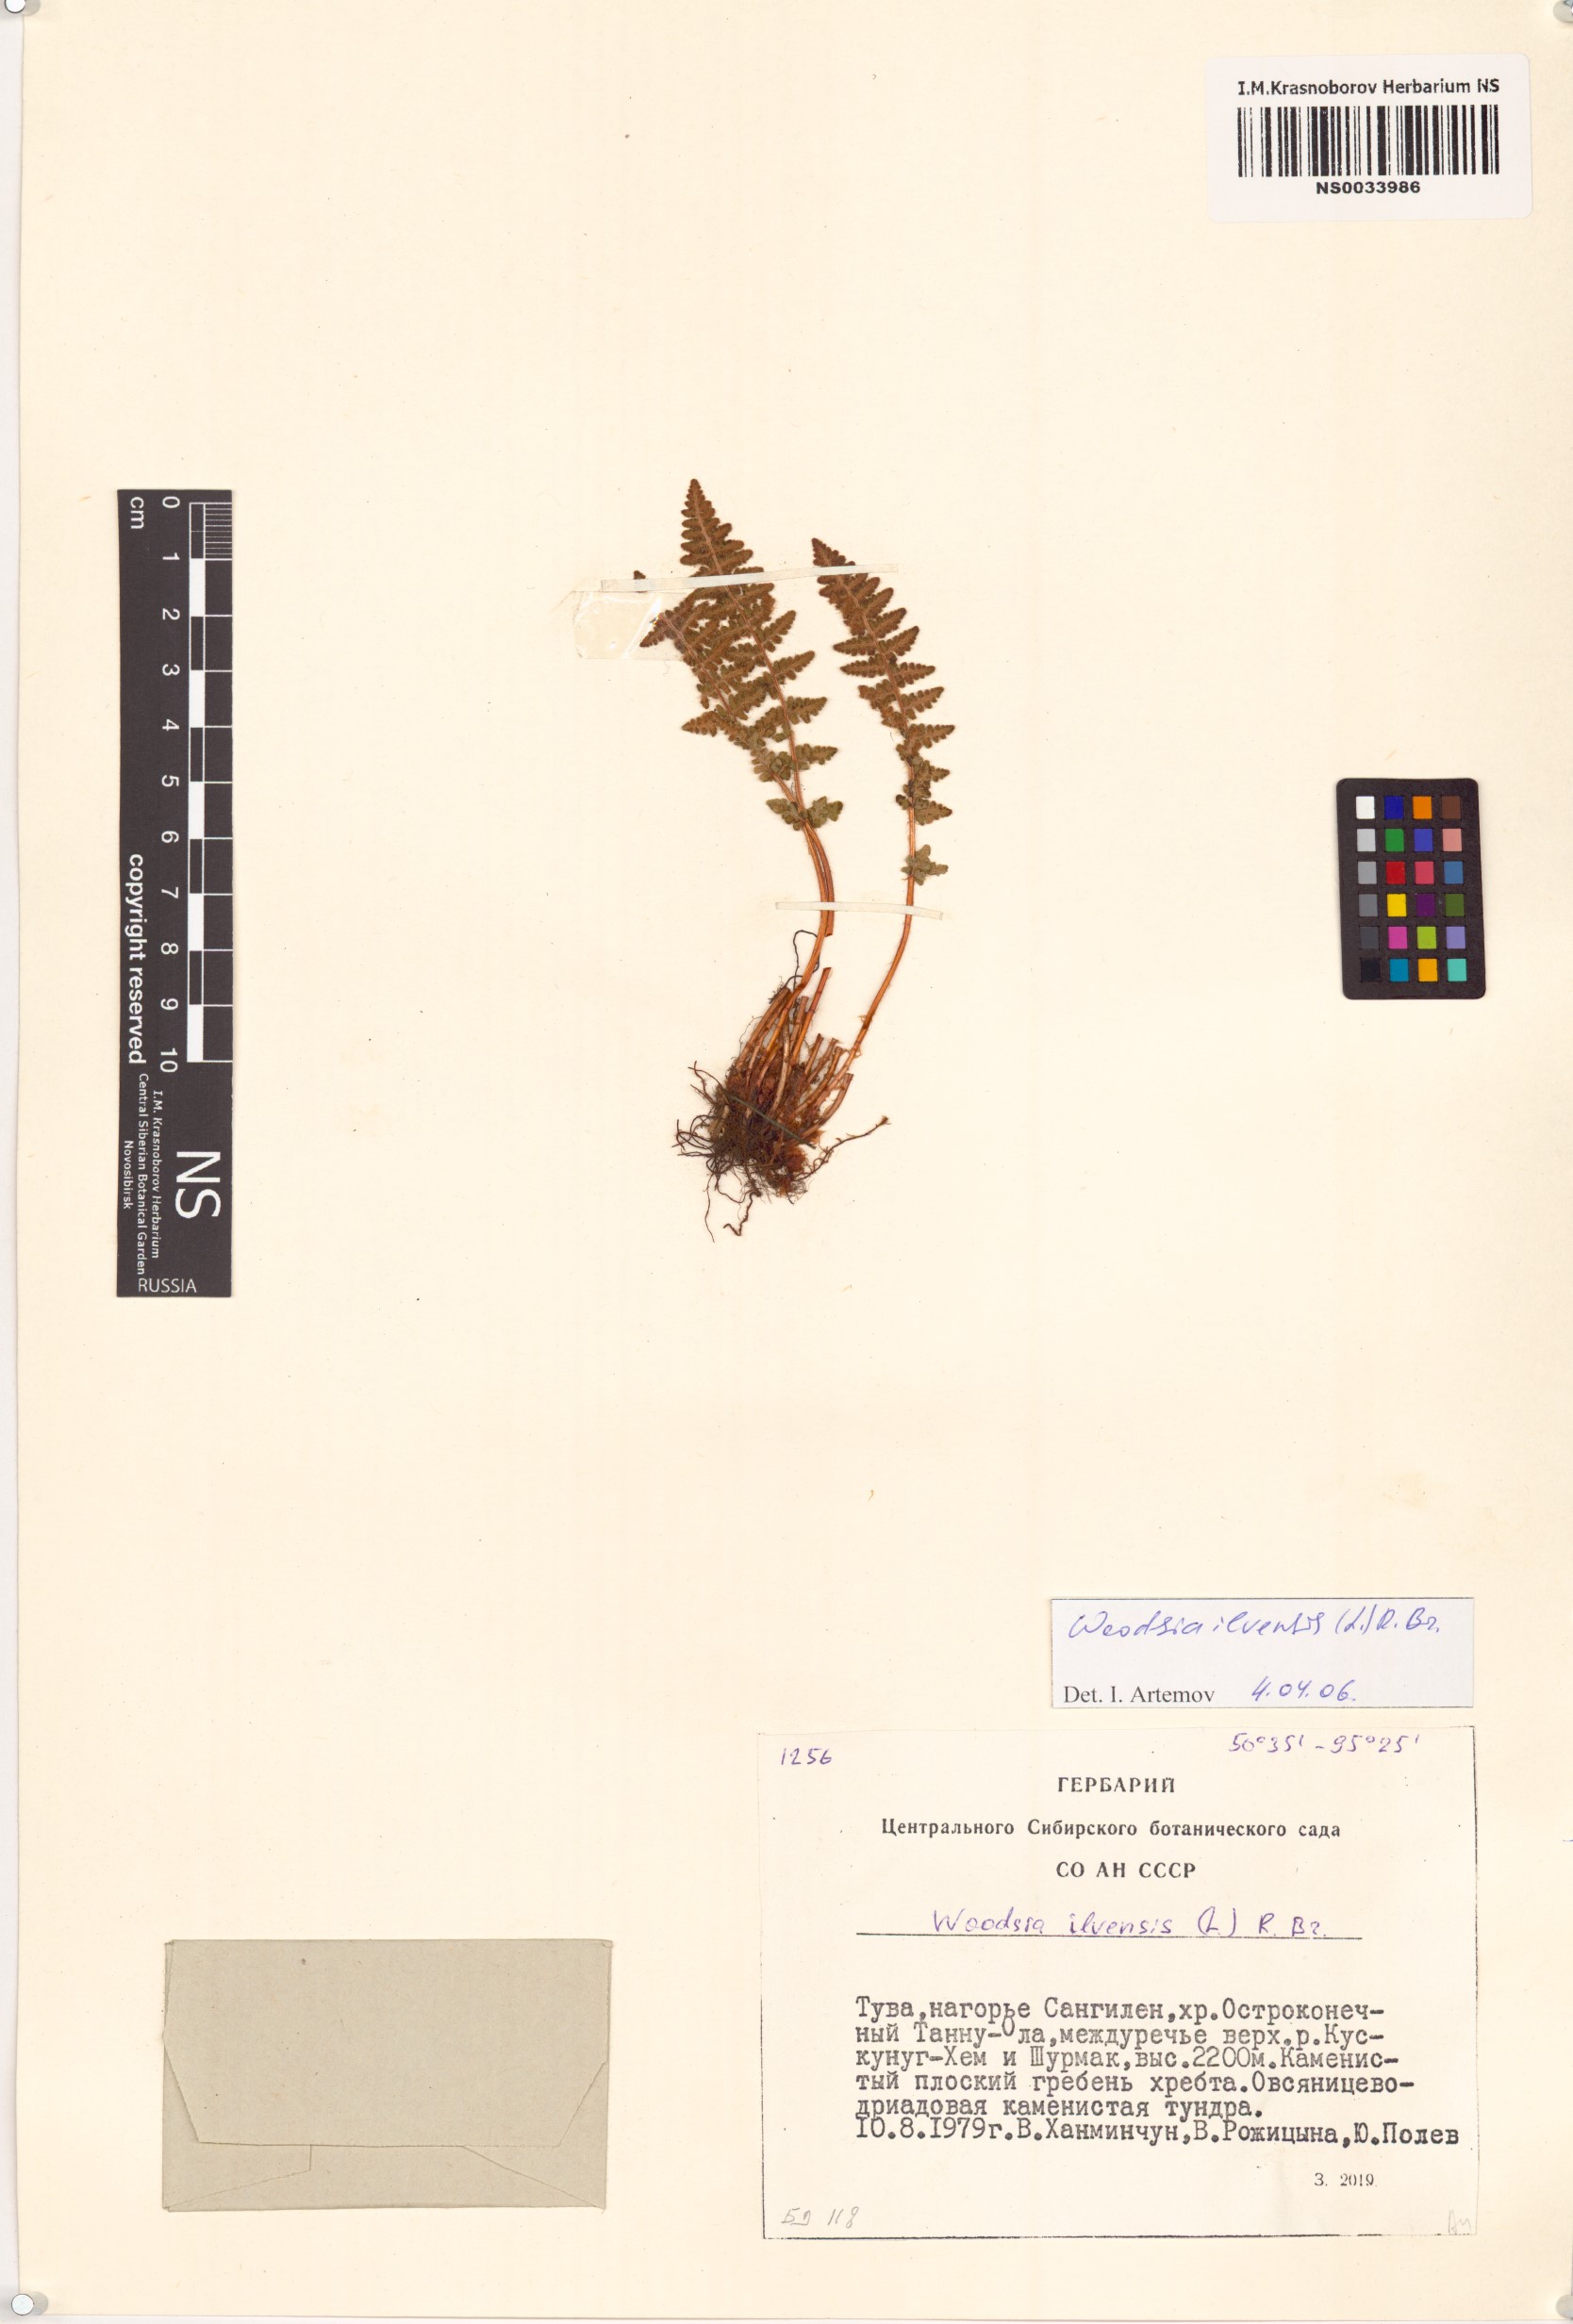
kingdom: Plantae
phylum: Tracheophyta
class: Polypodiopsida
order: Polypodiales
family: Woodsiaceae
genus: Woodsia
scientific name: Woodsia ilvensis
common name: Fragrant woodsia
